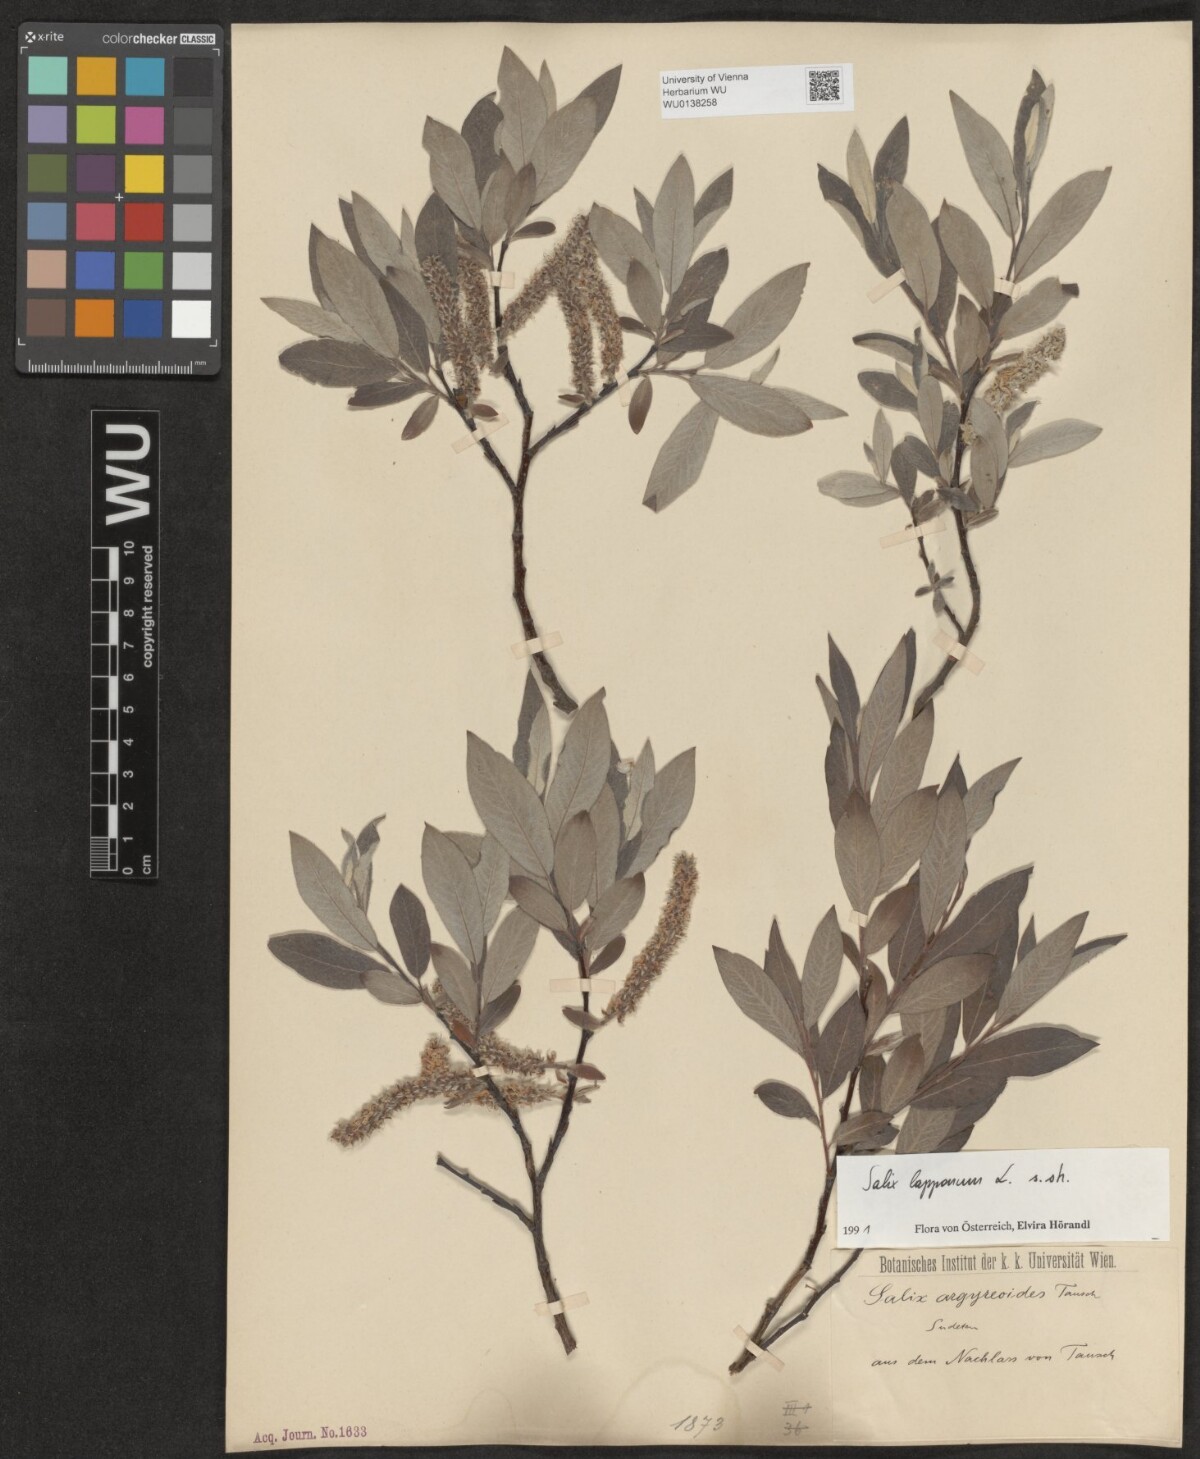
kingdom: Plantae
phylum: Tracheophyta
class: Magnoliopsida
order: Malpighiales
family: Salicaceae
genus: Salix
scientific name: Salix lapponum
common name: Downy willow
